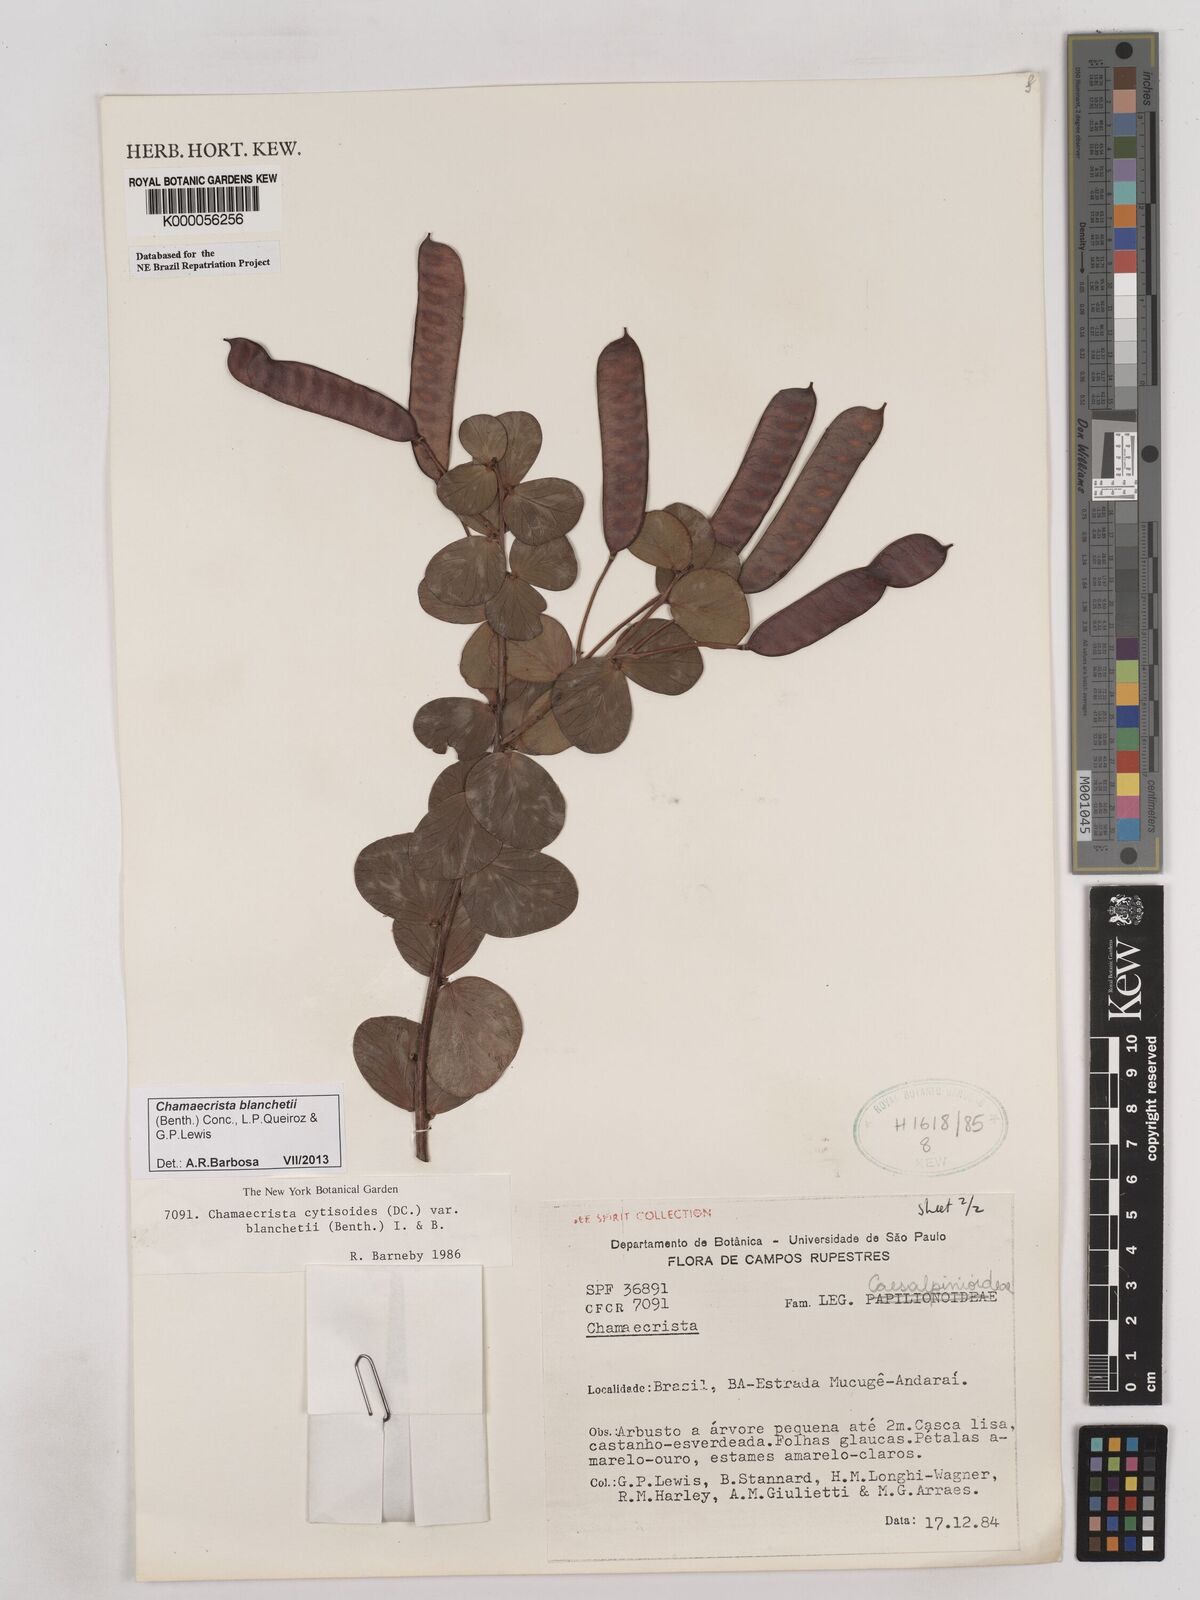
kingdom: Plantae
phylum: Tracheophyta
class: Magnoliopsida
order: Fabales
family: Fabaceae
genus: Chamaecrista
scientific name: Chamaecrista cytisoides
